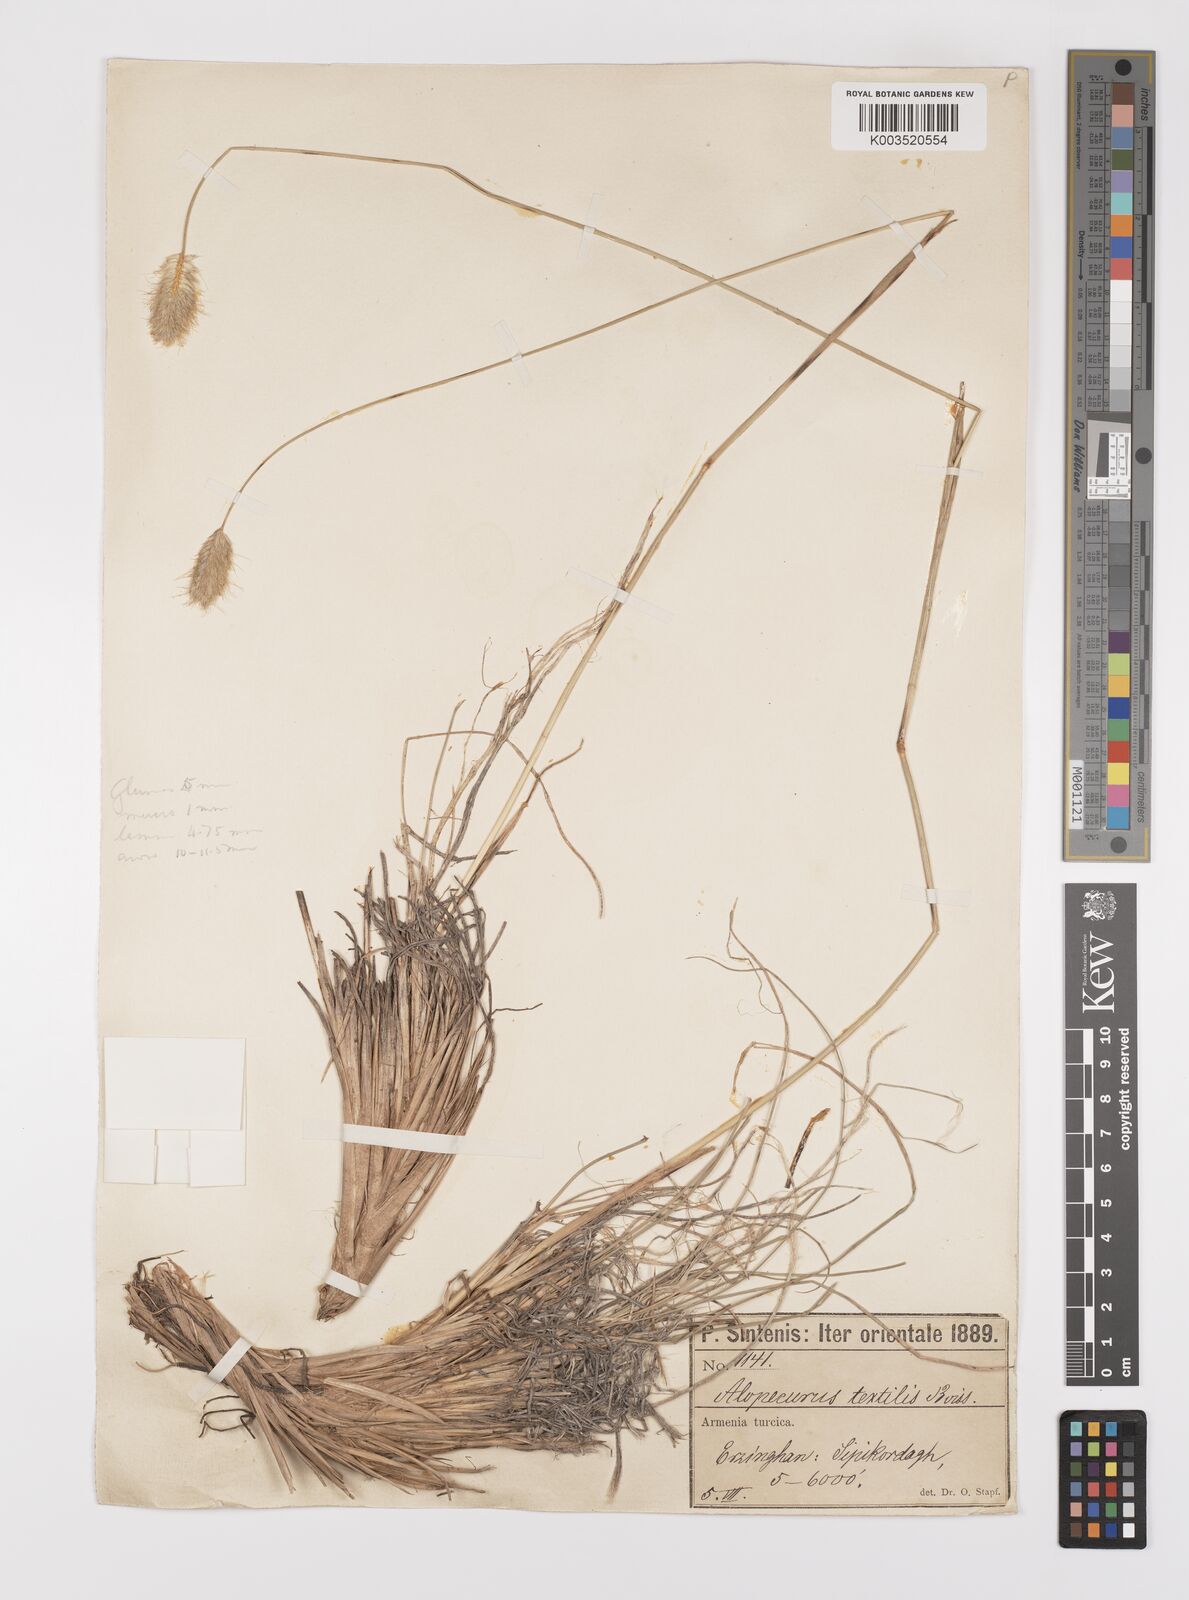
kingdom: Plantae
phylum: Tracheophyta
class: Liliopsida
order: Poales
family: Poaceae
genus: Alopecurus
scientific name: Alopecurus textilis
